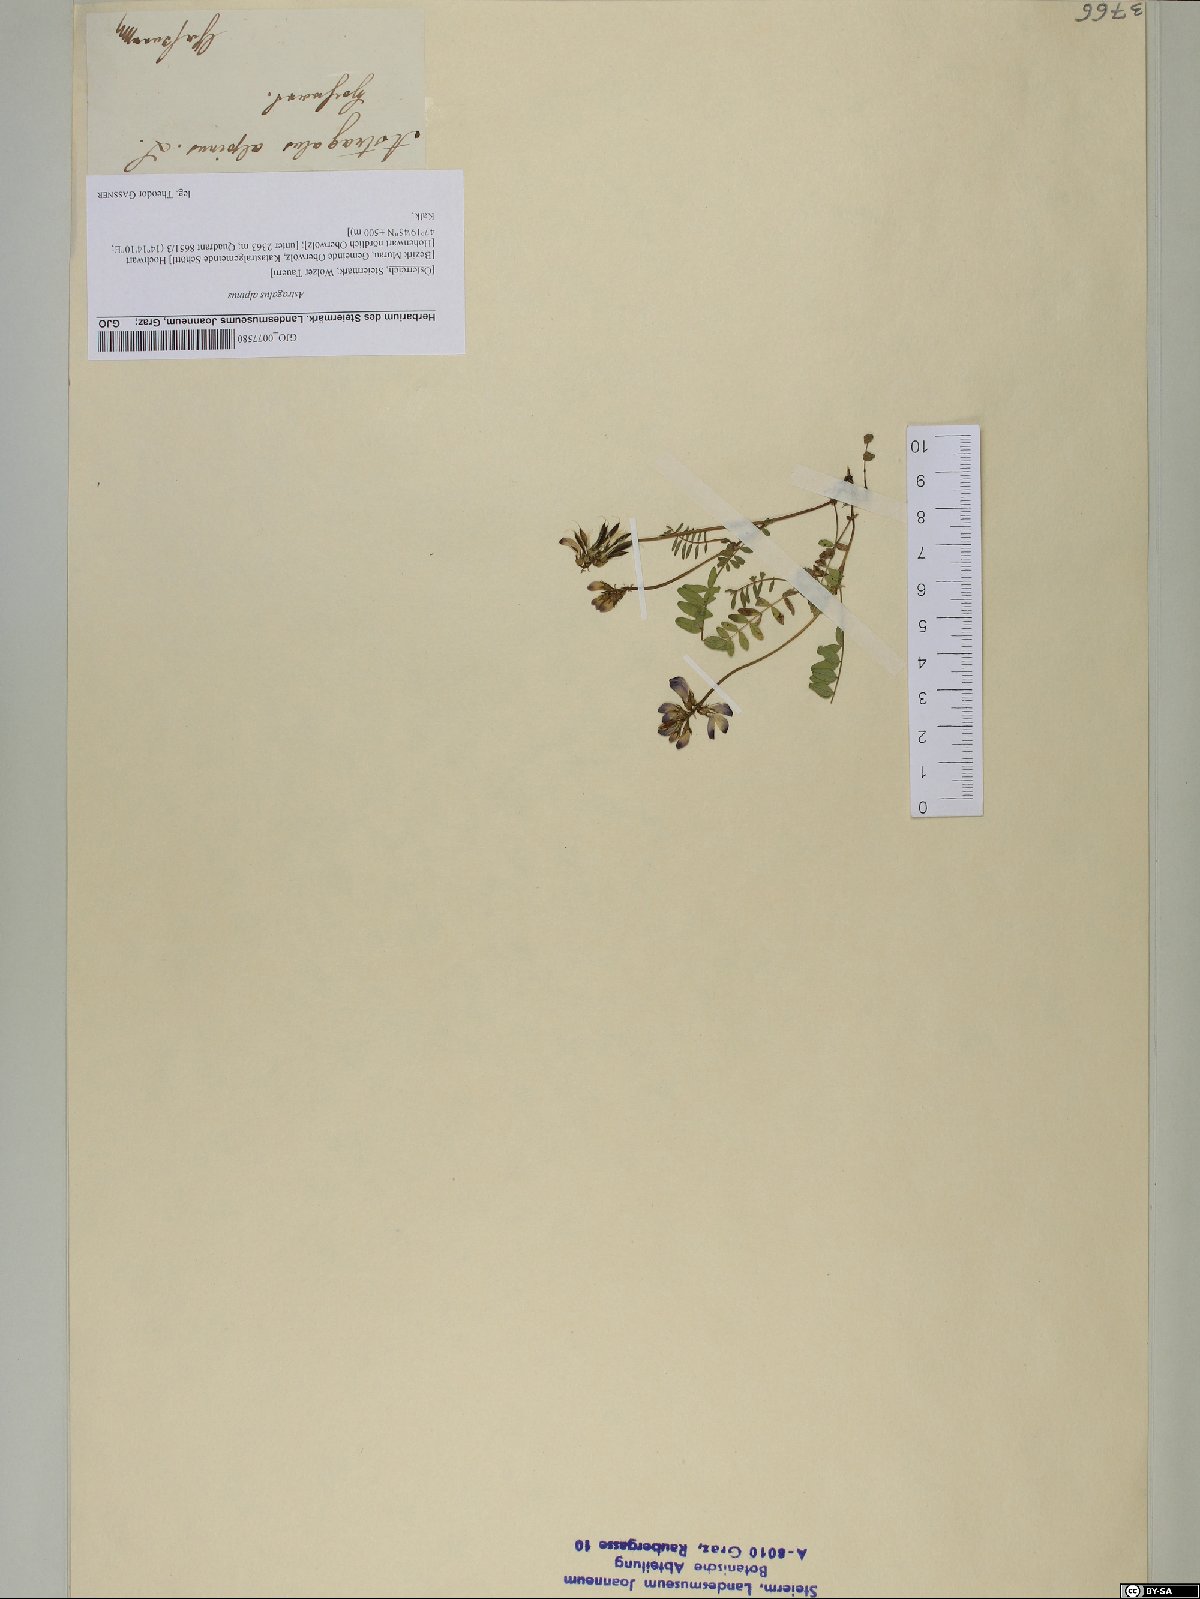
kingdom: Plantae
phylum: Tracheophyta
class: Magnoliopsida
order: Fabales
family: Fabaceae
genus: Astragalus
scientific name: Astragalus alpinus
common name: Alpine milk-vetch
